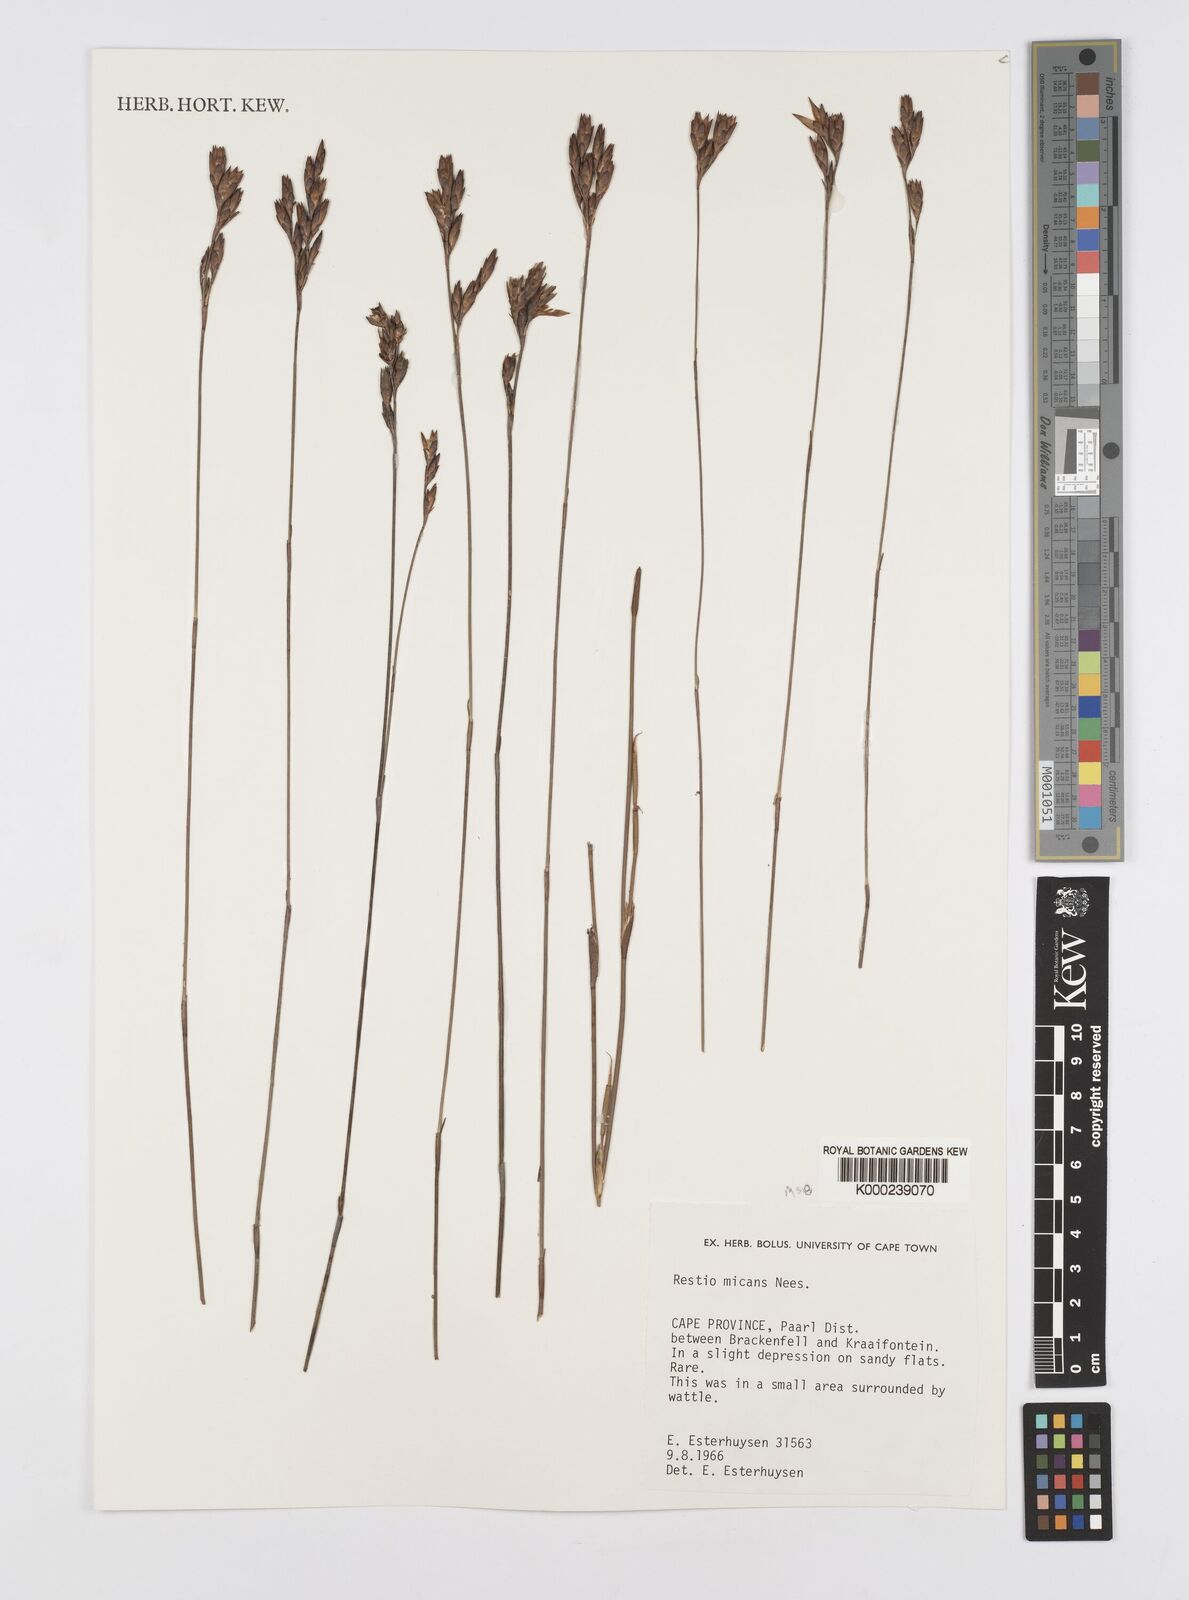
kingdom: Plantae
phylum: Tracheophyta
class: Liliopsida
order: Poales
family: Restionaceae
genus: Restio
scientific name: Restio micans
